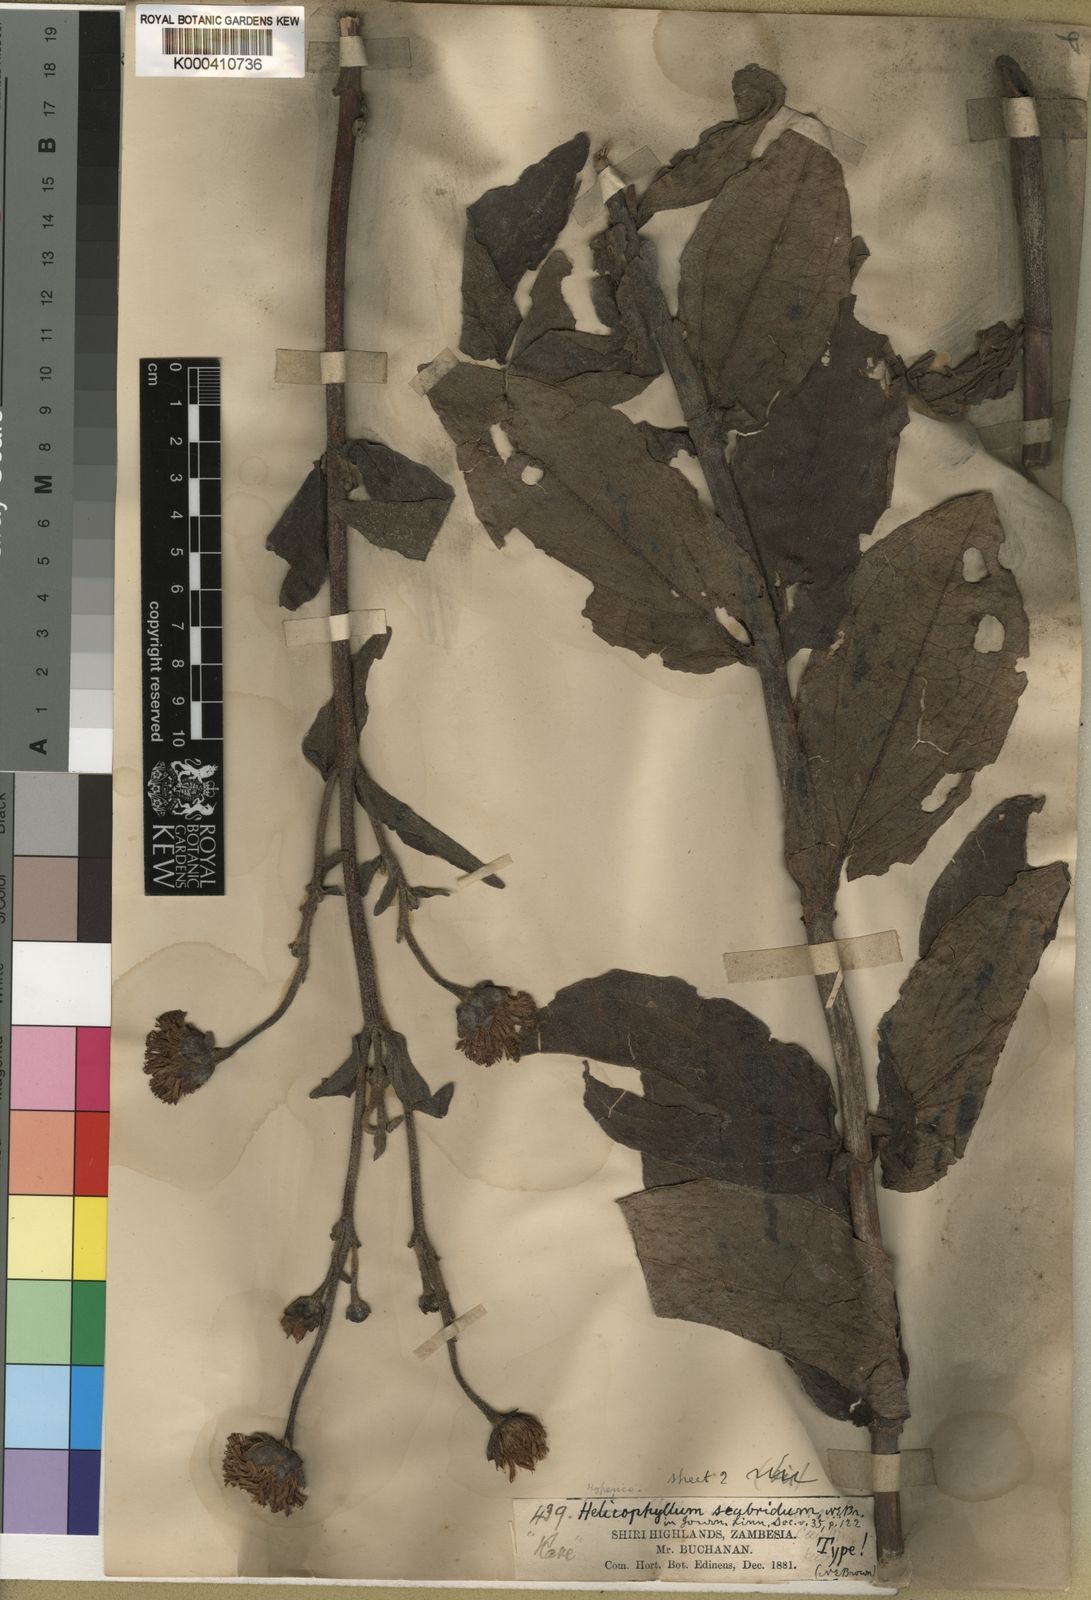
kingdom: Plantae
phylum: Tracheophyta
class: Magnoliopsida
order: Asterales
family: Asteraceae
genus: Hypericophyllum
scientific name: Hypericophyllum angolense
